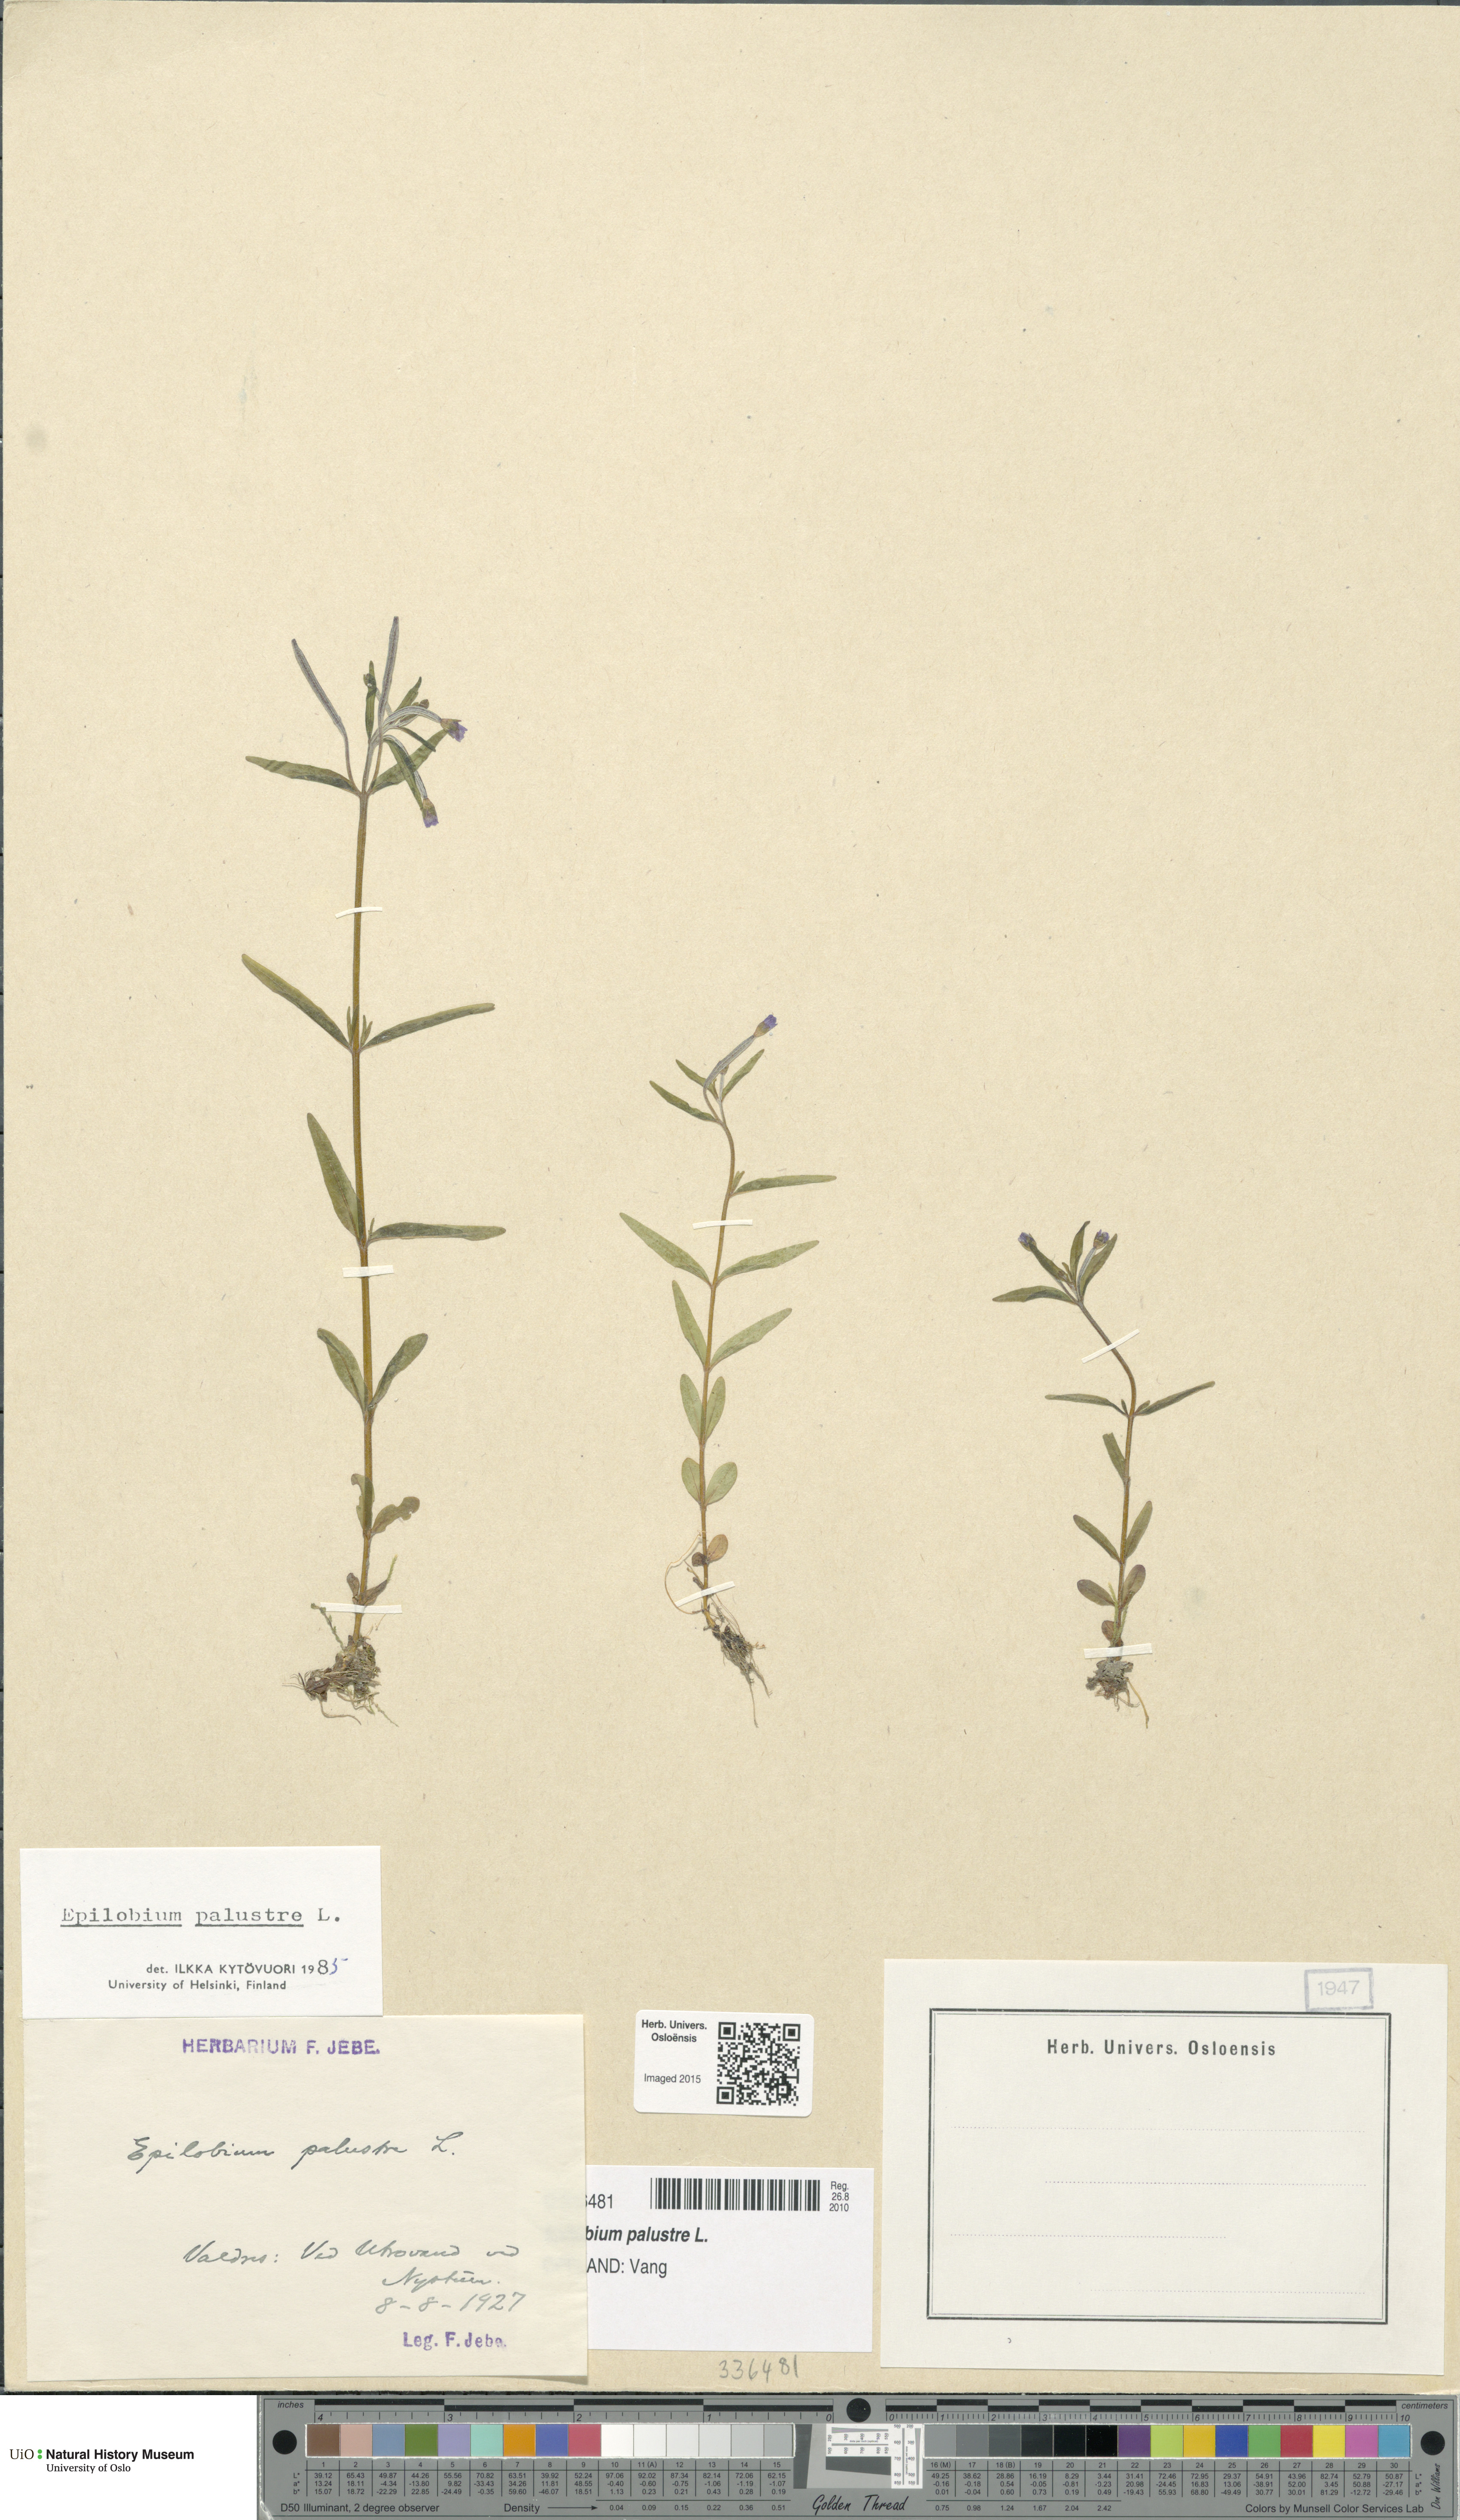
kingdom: Plantae
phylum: Tracheophyta
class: Magnoliopsida
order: Myrtales
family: Onagraceae
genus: Epilobium
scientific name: Epilobium palustre
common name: Marsh willowherb
